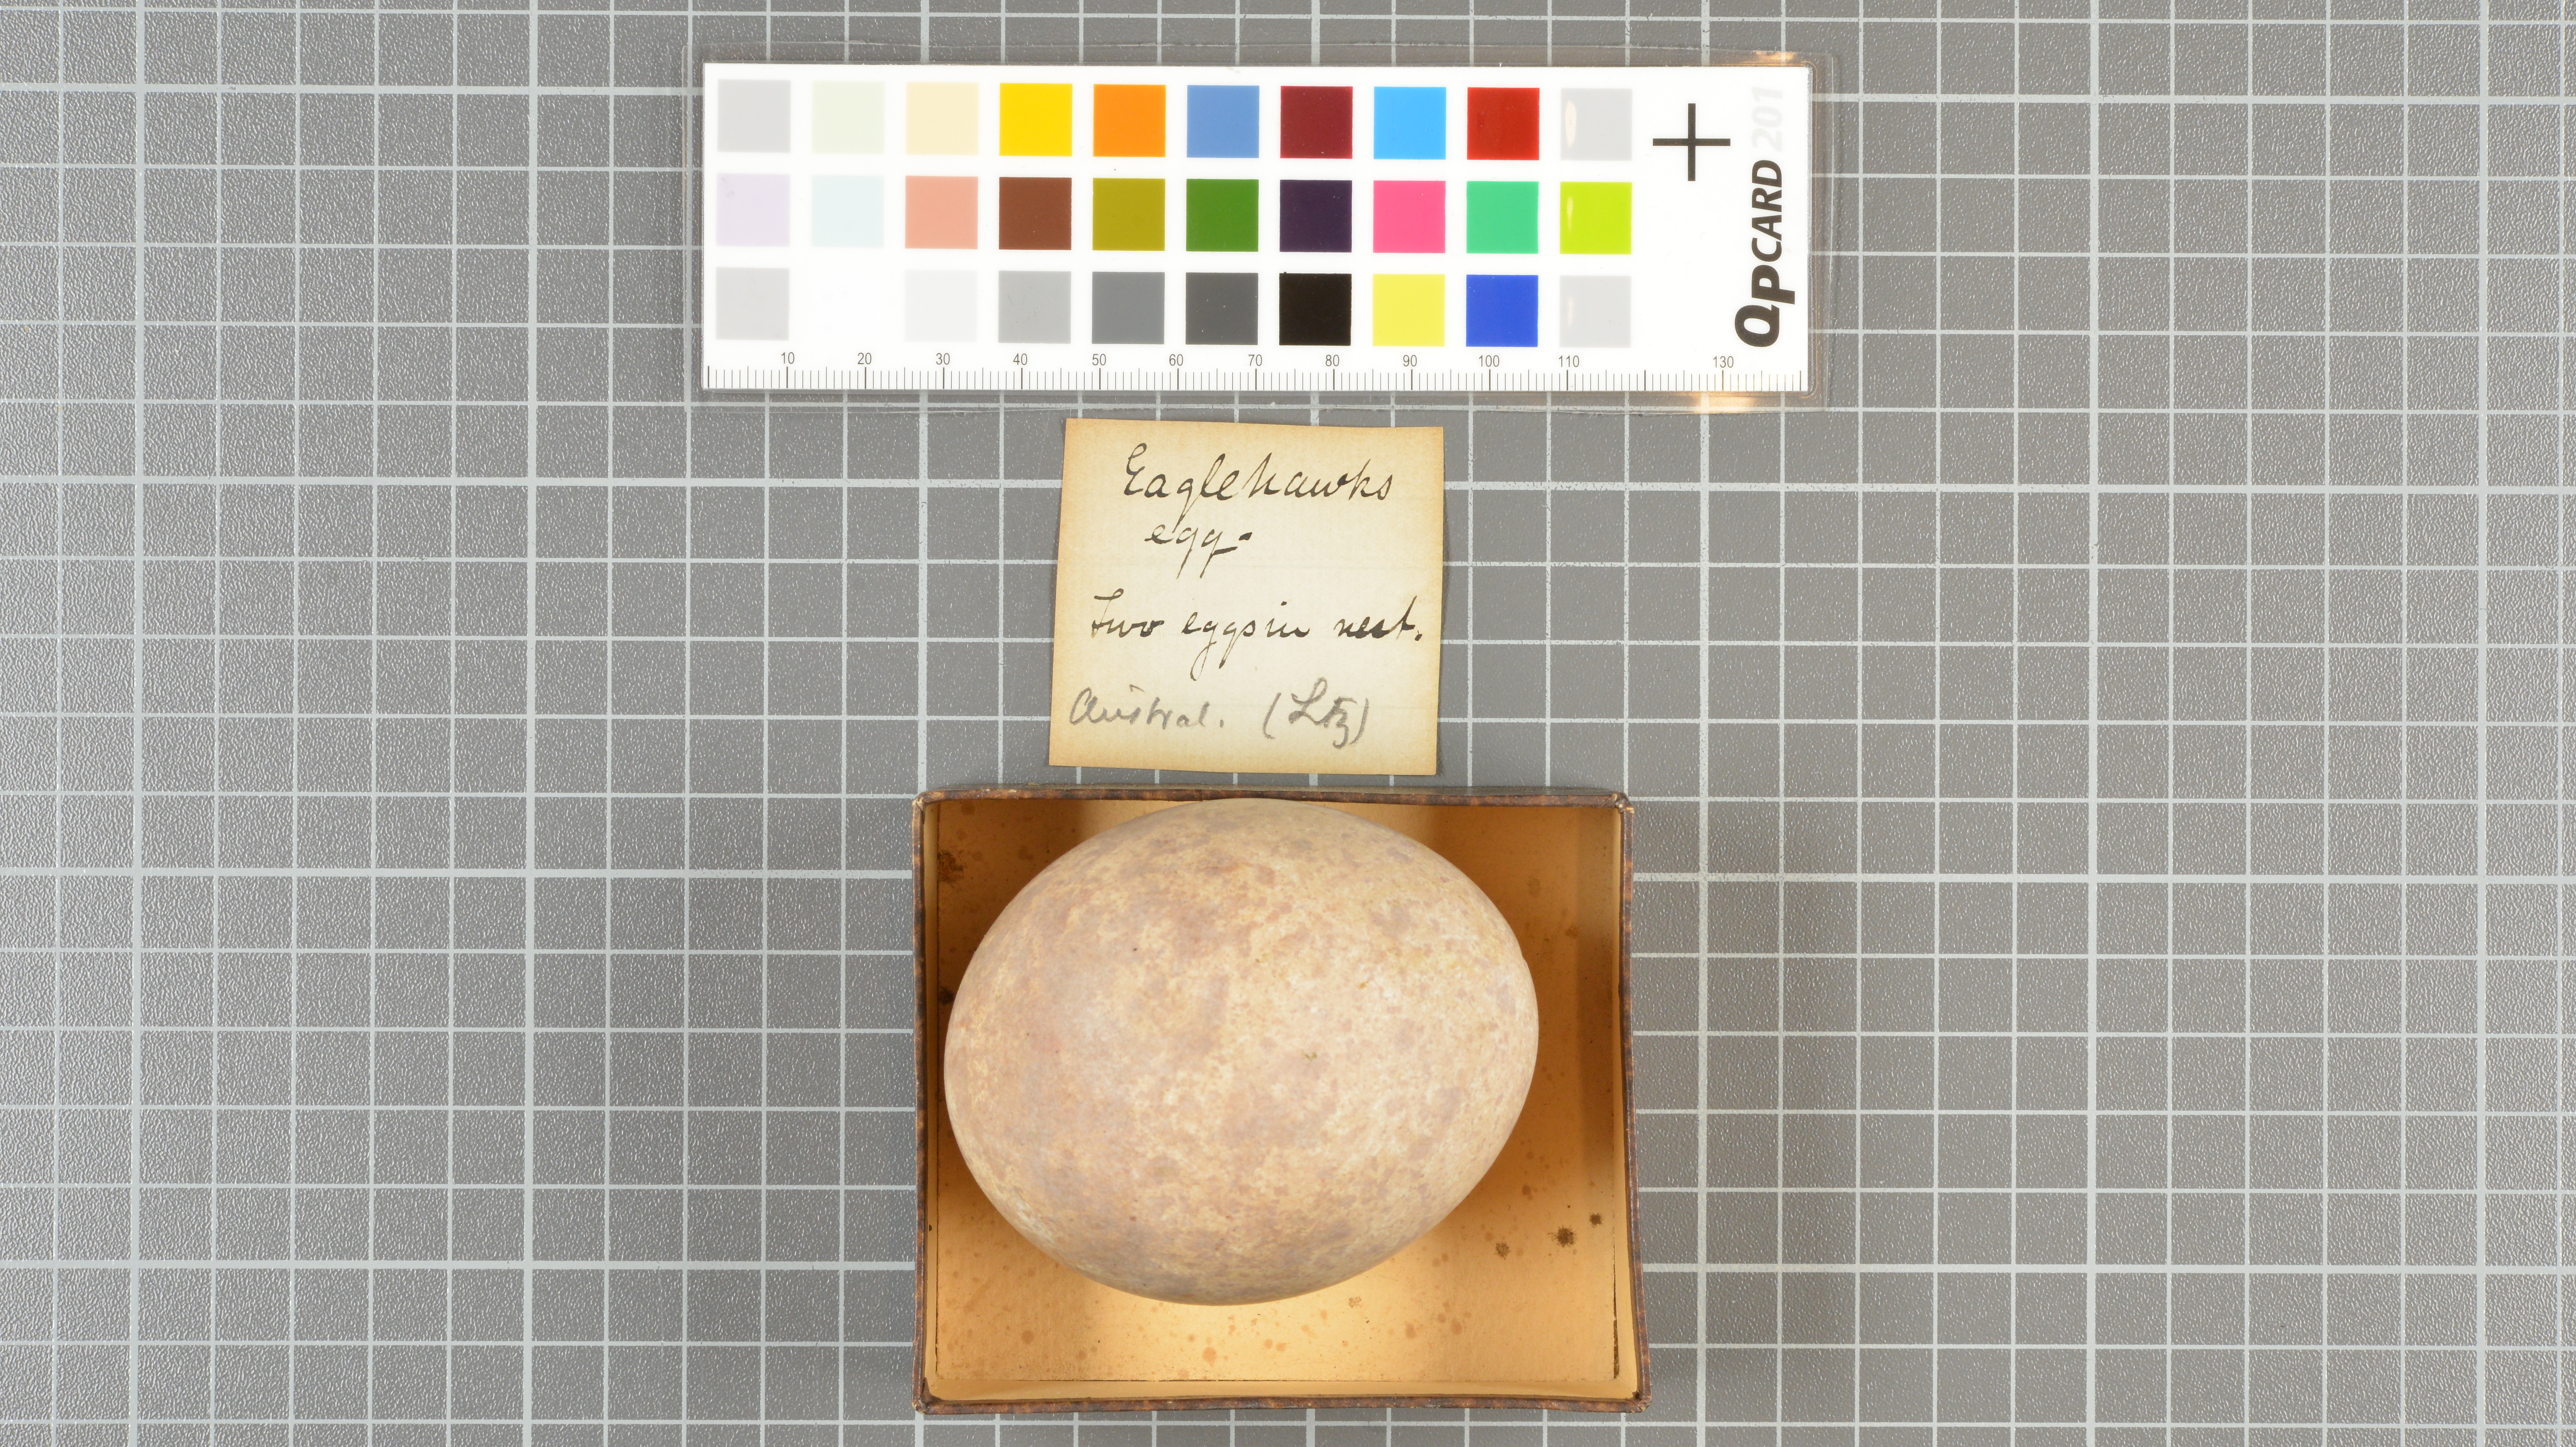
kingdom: Animalia
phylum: Chordata
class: Aves
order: Accipitriformes
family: Accipitridae
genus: Aquila
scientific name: Aquila audax
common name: Wedge-tailed eagle
